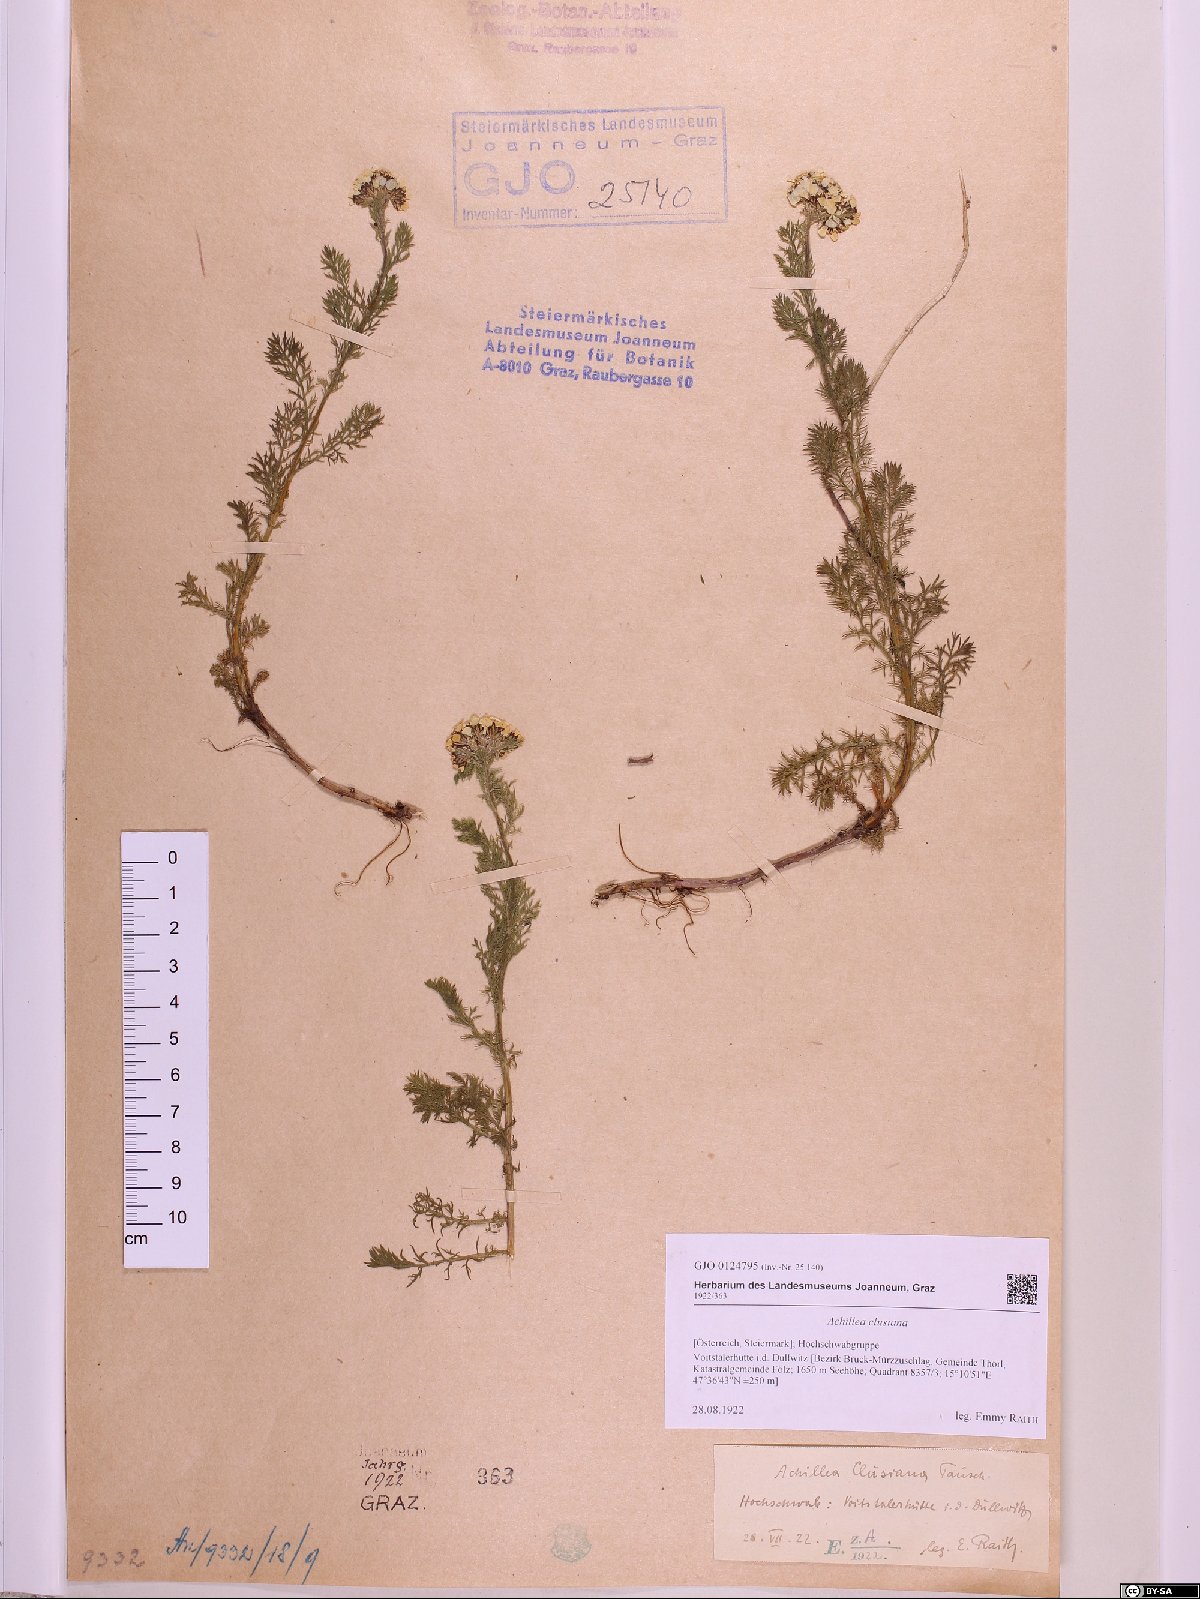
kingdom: Plantae
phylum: Tracheophyta
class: Magnoliopsida
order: Asterales
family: Asteraceae
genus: Achillea
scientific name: Achillea clusiana
